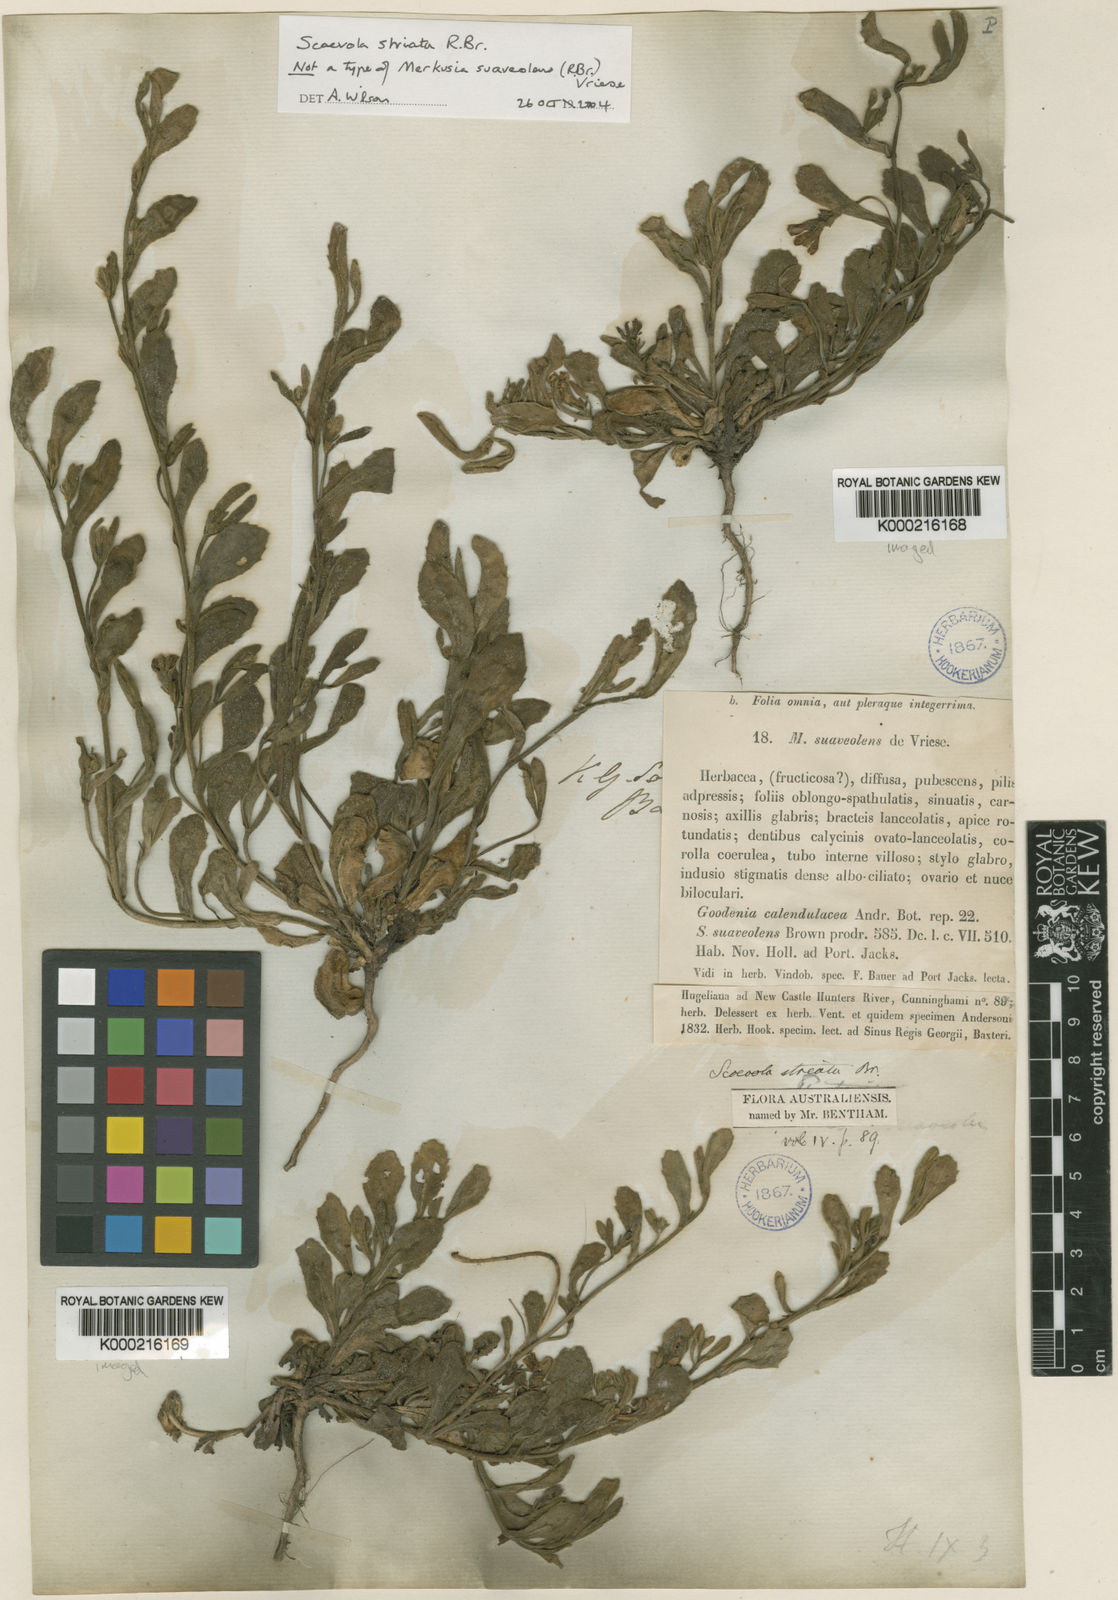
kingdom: Plantae
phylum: Tracheophyta
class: Magnoliopsida
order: Asterales
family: Goodeniaceae
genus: Scaevola
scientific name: Scaevola striata
